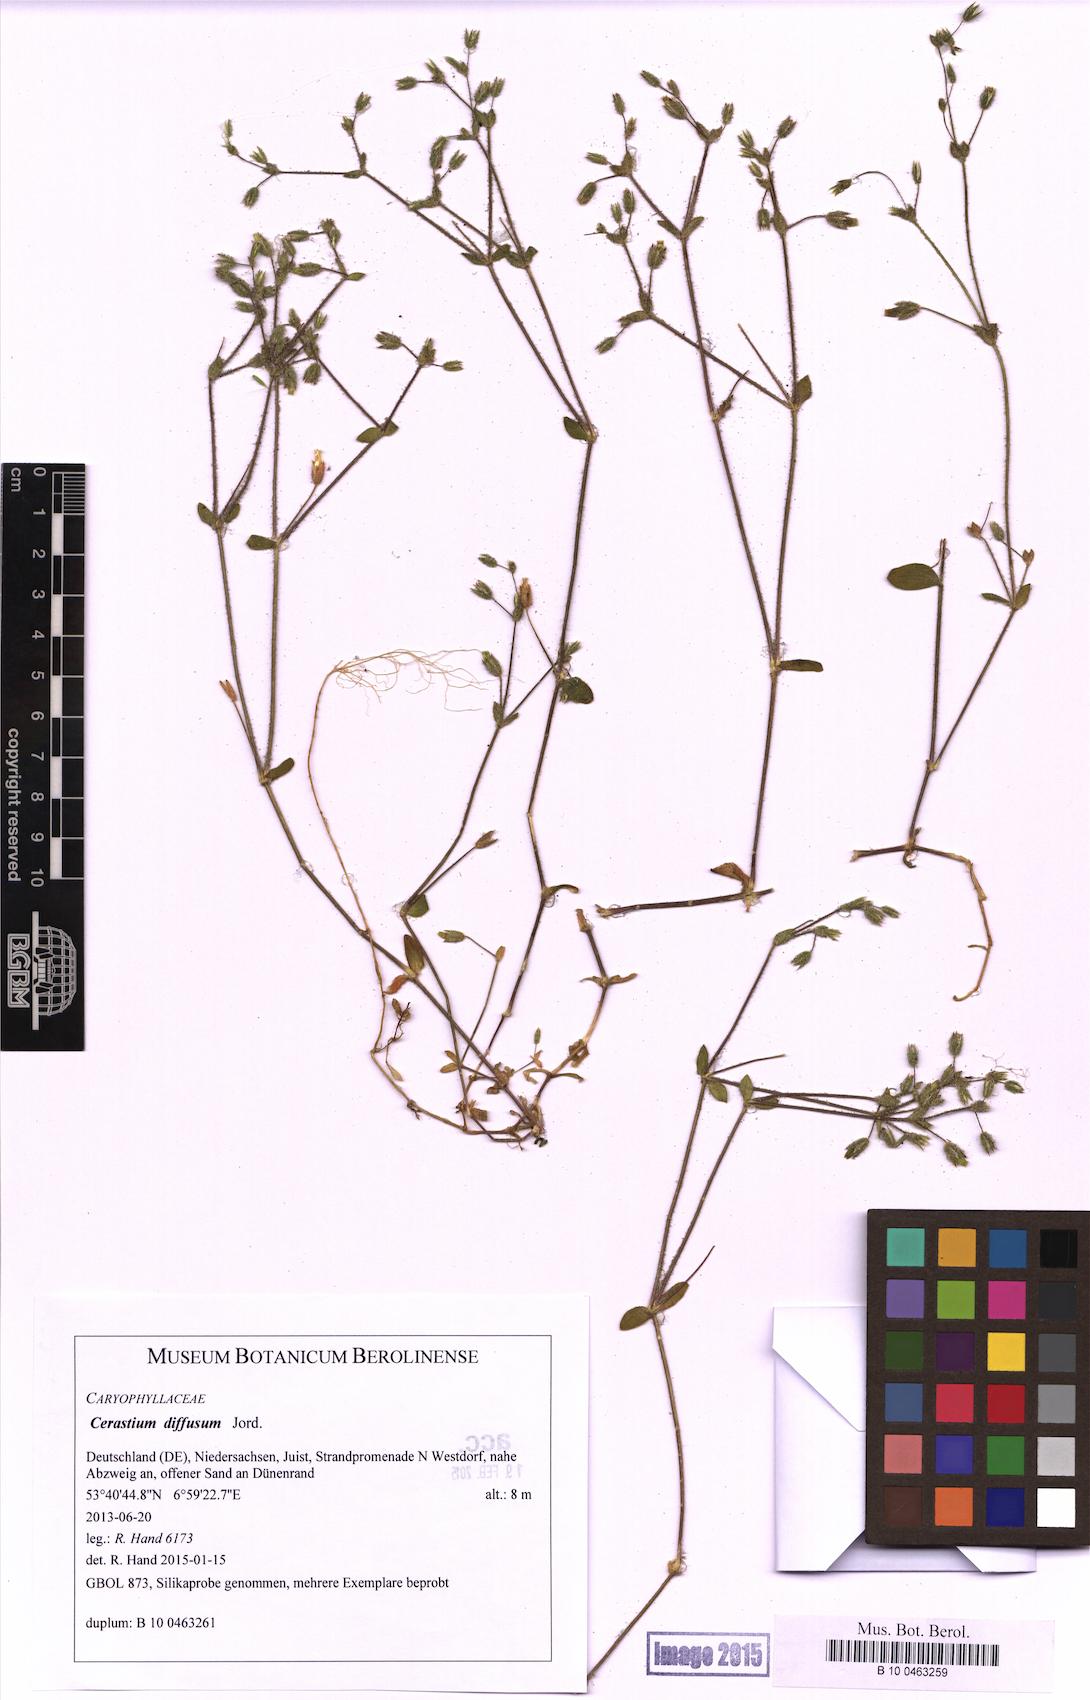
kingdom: Plantae
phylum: Tracheophyta
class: Magnoliopsida
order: Caryophyllales
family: Caryophyllaceae
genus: Cerastium
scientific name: Cerastium diffusum
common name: Fourstamen chickweed
